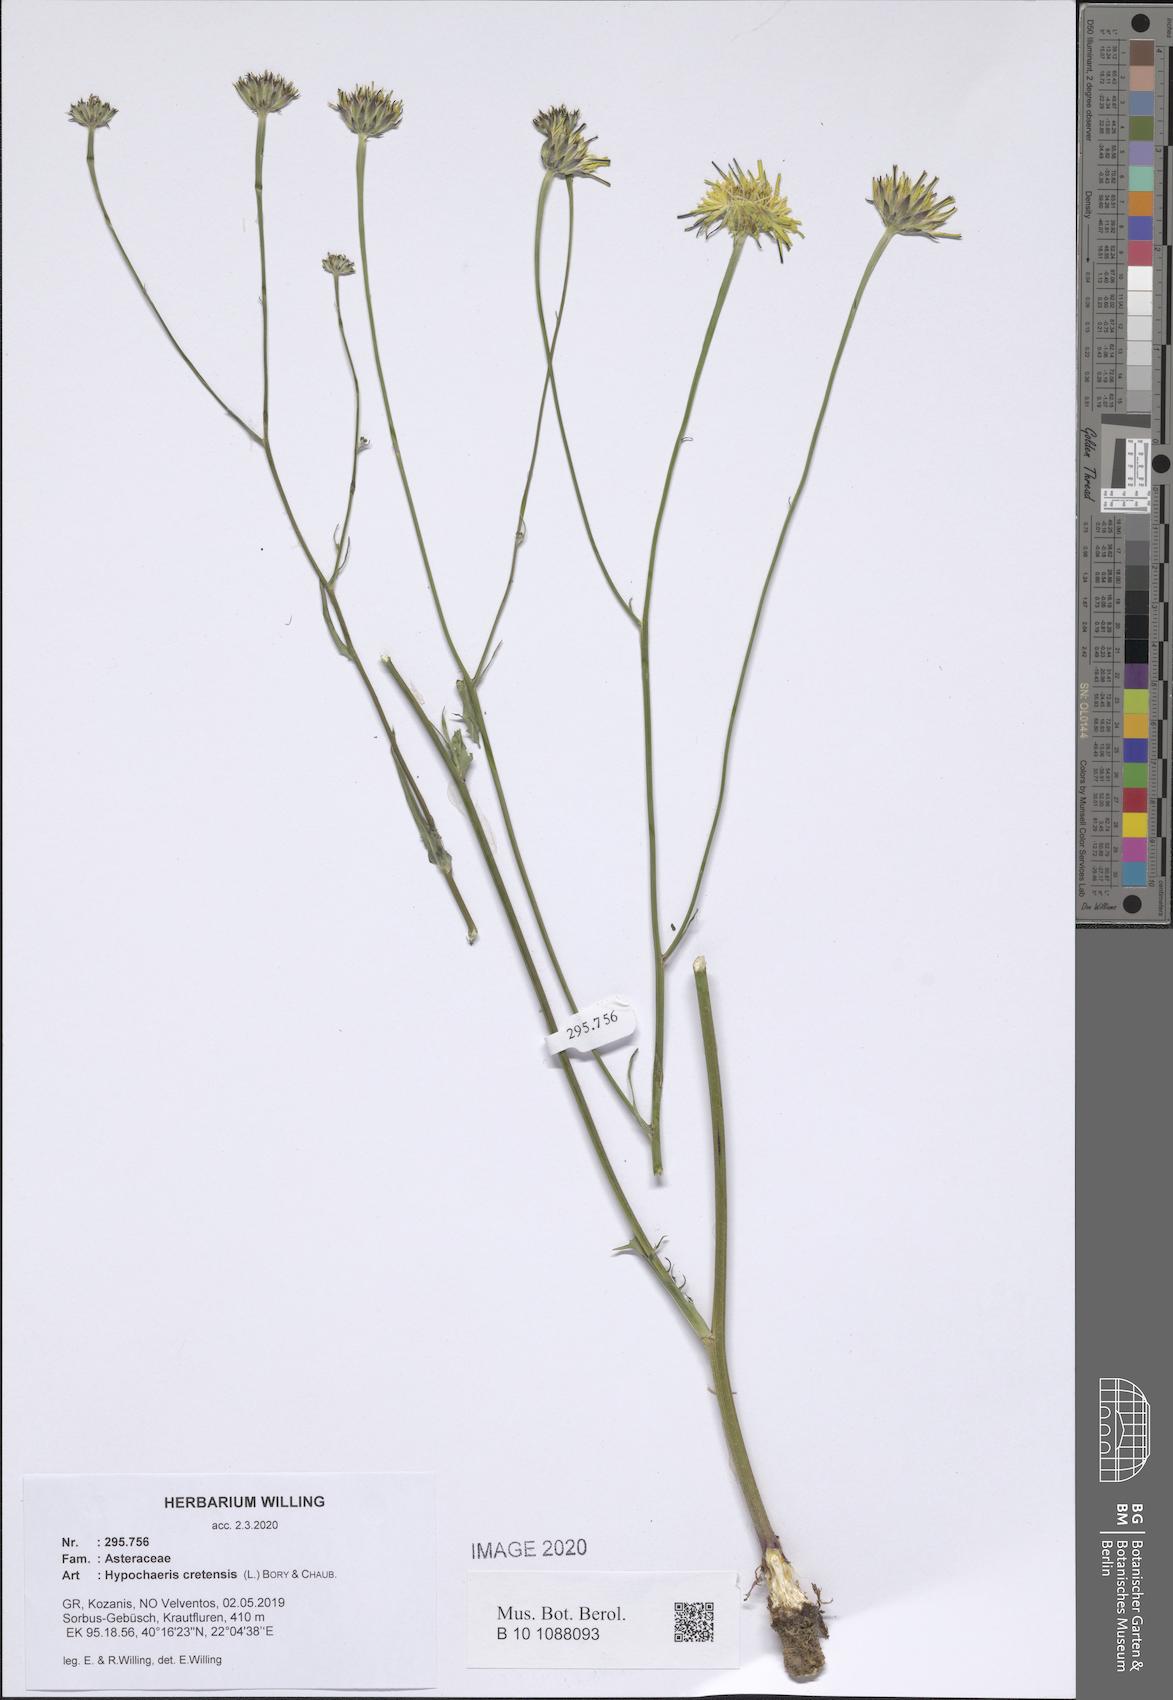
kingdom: Plantae
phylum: Tracheophyta
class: Magnoliopsida
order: Asterales
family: Asteraceae
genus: Hypochaeris
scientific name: Hypochaeris cretensis
